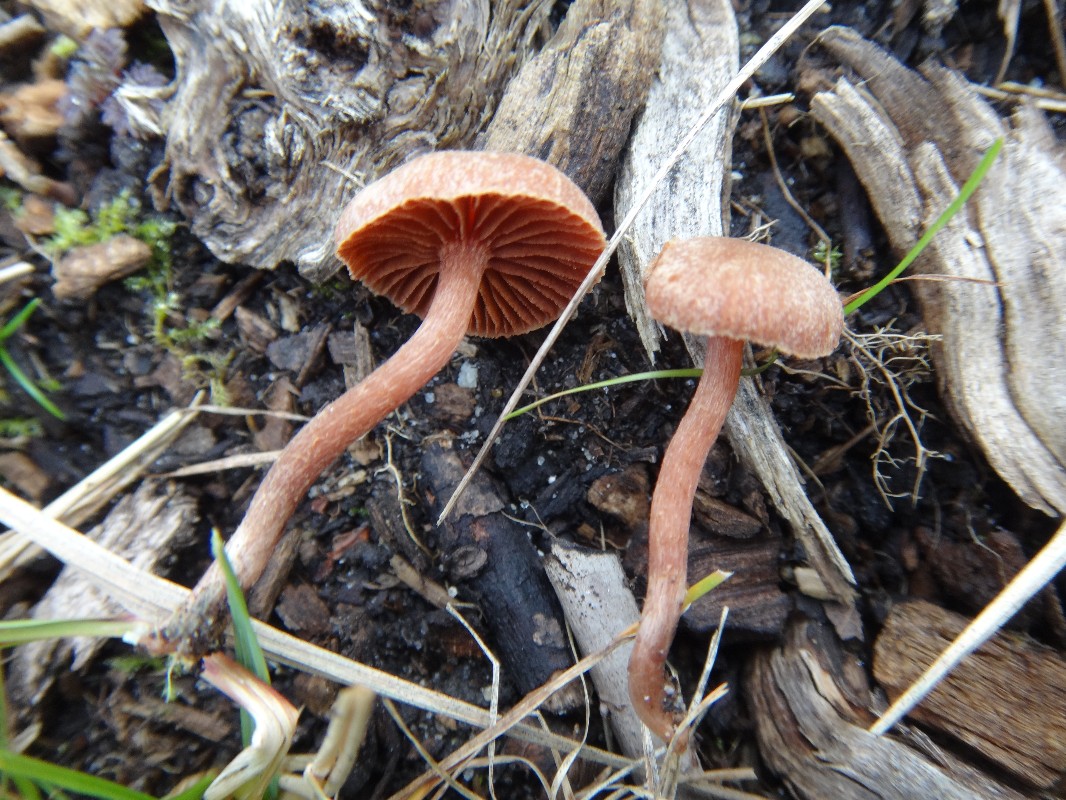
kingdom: Fungi
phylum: Basidiomycota
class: Agaricomycetes
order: Agaricales
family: Tubariaceae
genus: Tubaria
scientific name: Tubaria furfuracea
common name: kliddet fnughat
